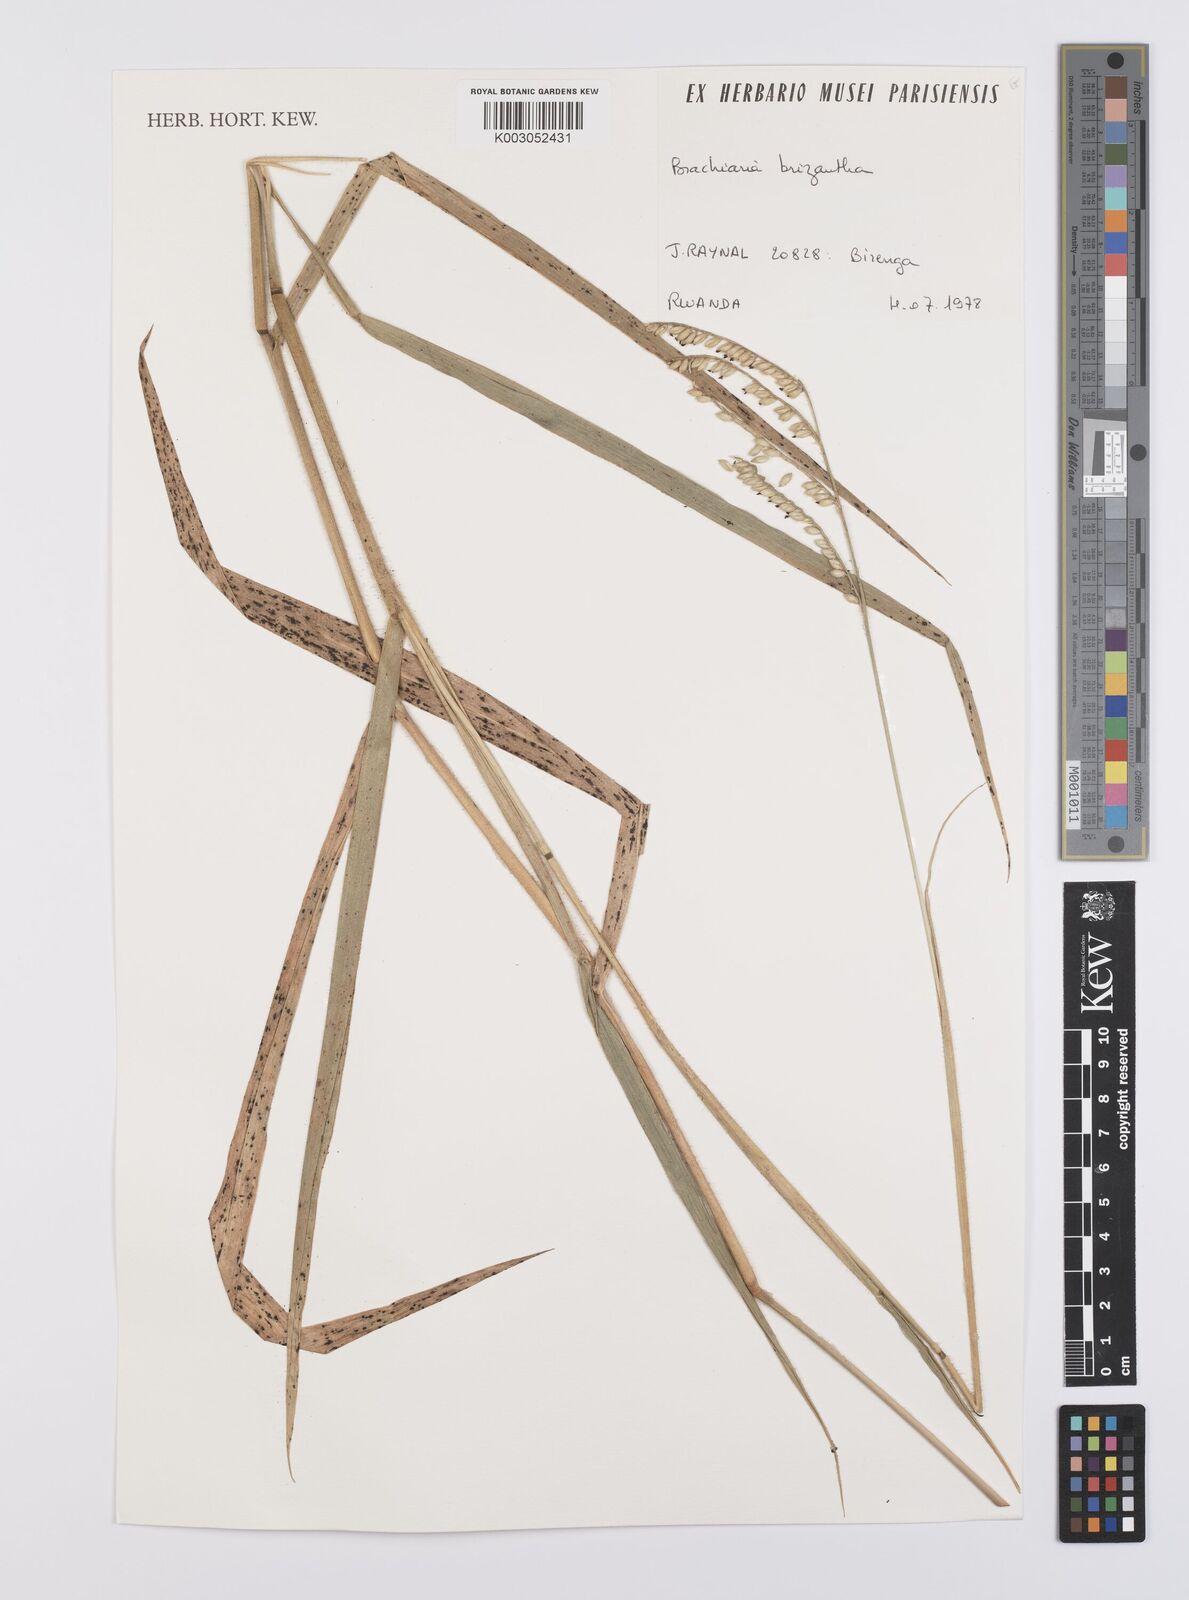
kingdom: Plantae
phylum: Tracheophyta
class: Liliopsida
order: Poales
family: Poaceae
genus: Urochloa
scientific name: Urochloa brizantha
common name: Palisade signalgrass
